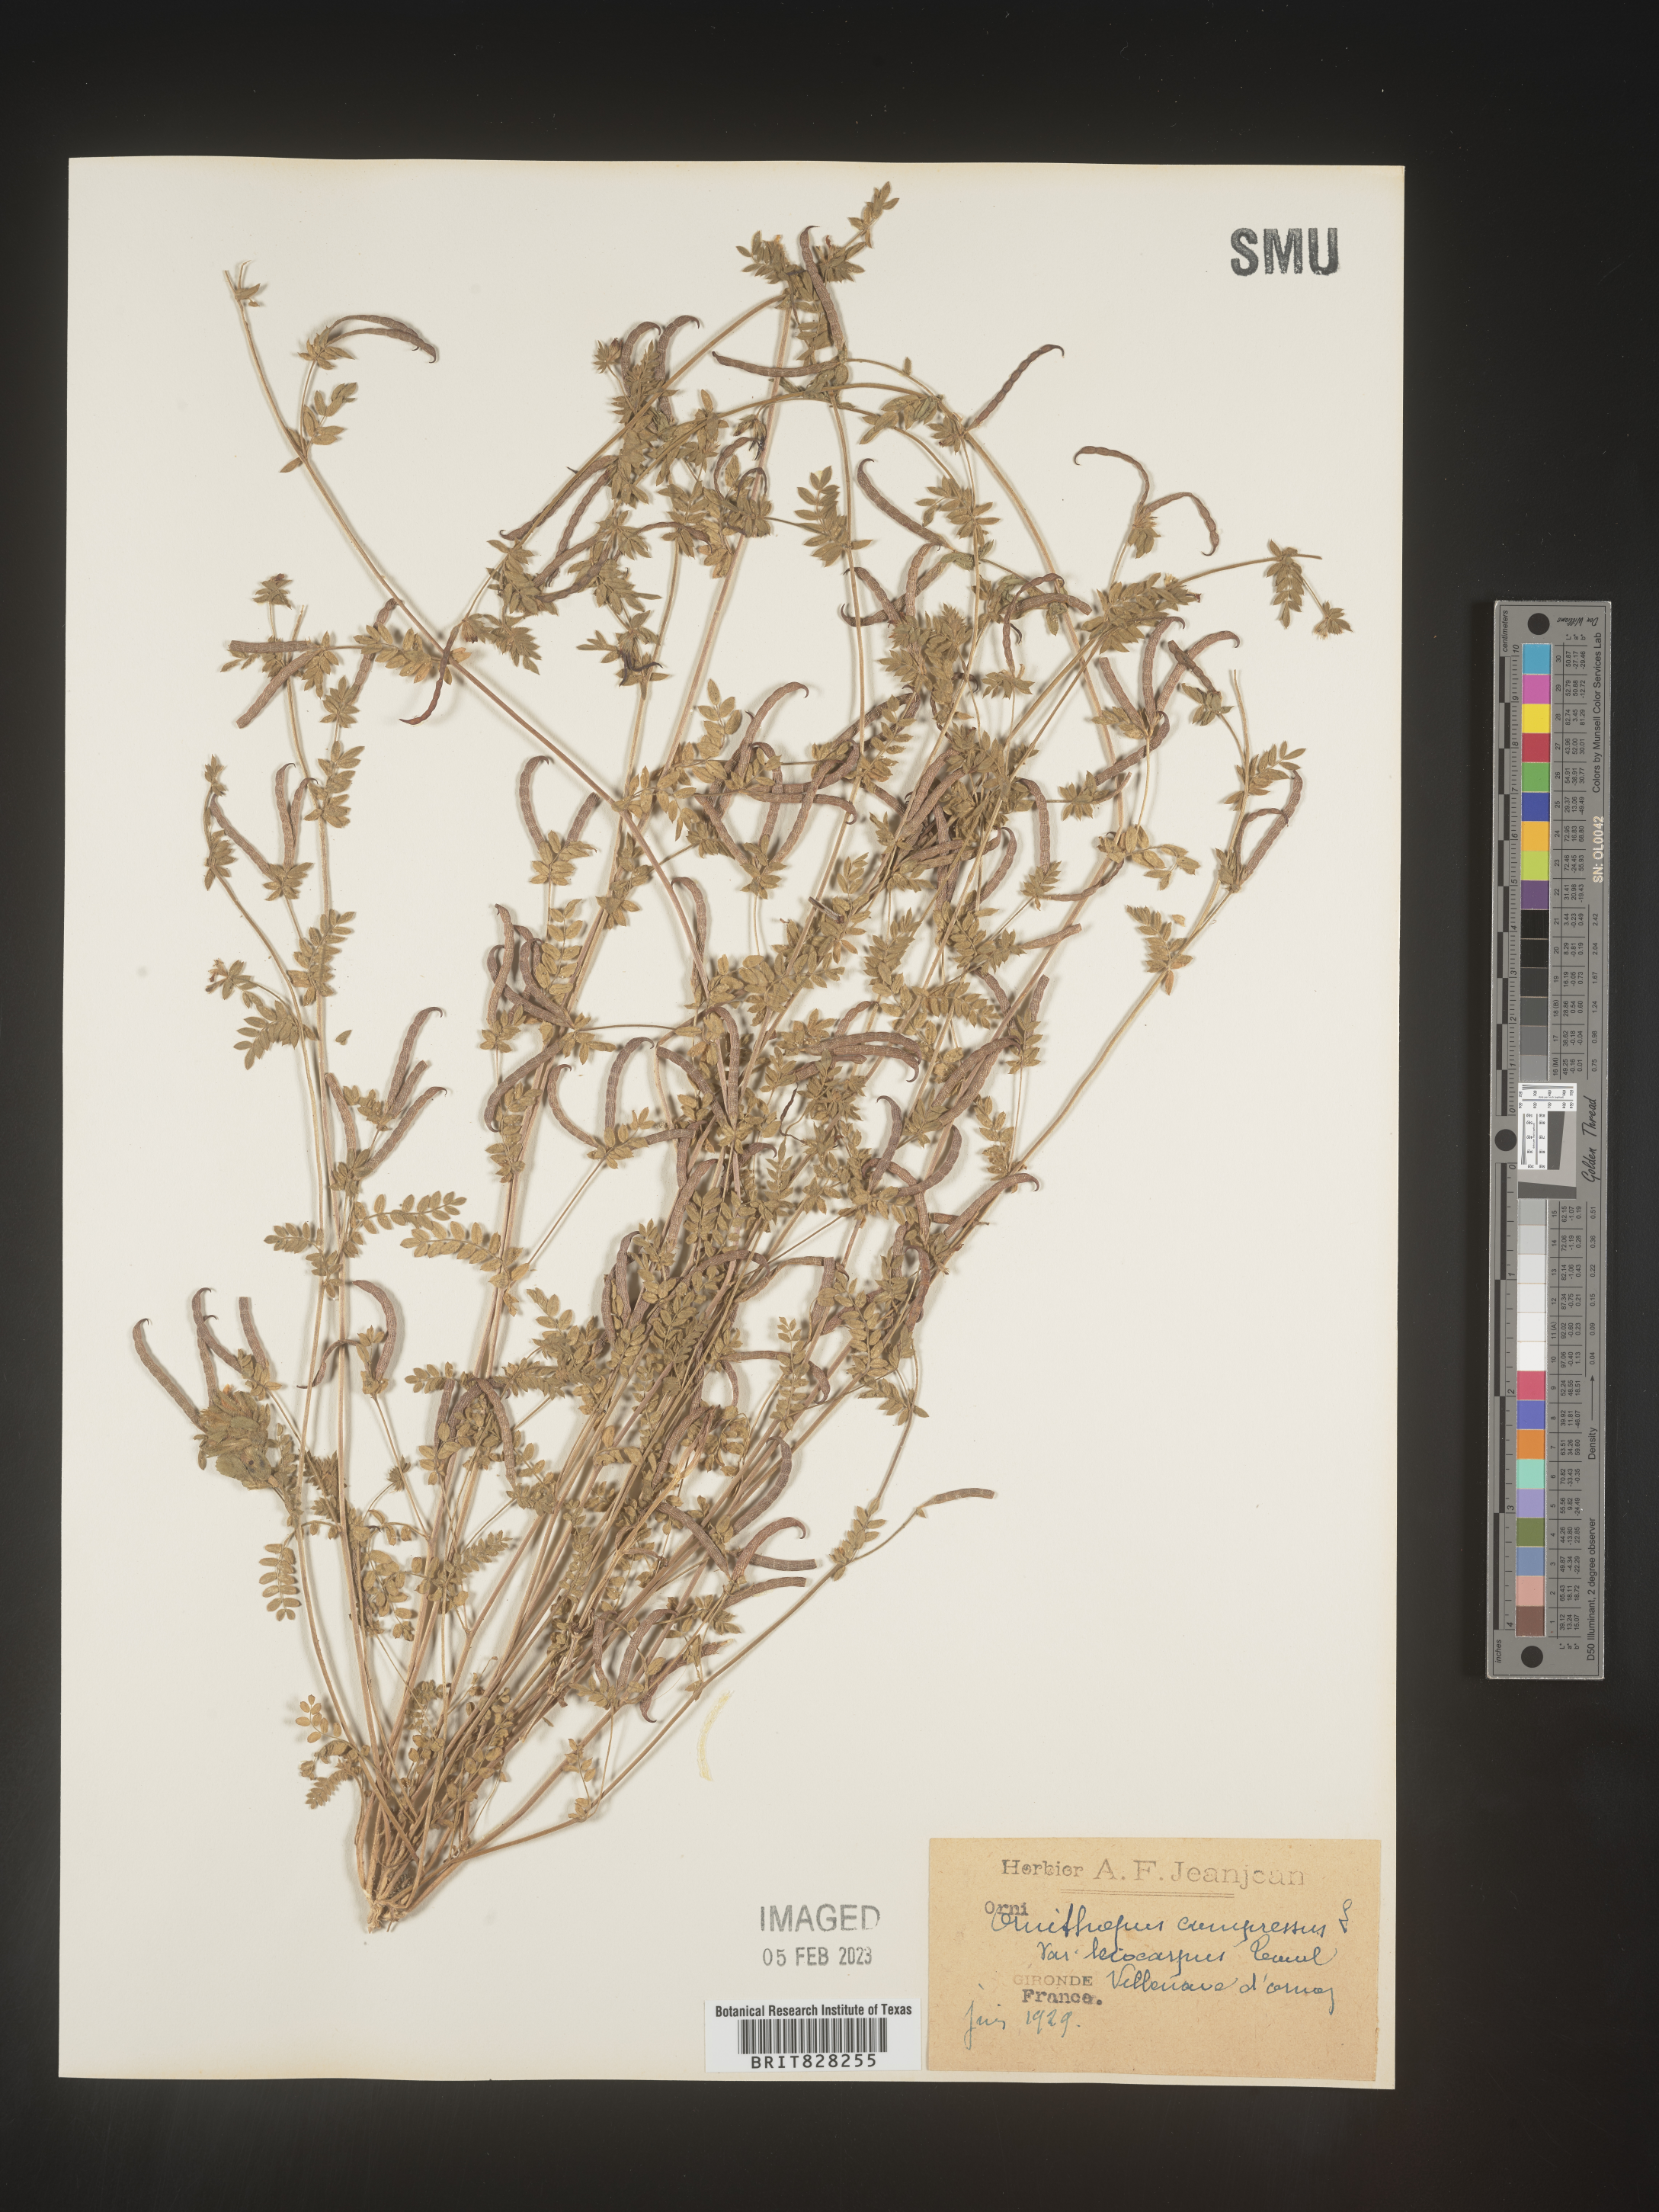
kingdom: Plantae
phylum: Tracheophyta
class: Magnoliopsida
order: Fabales
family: Fabaceae
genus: Ornithopus
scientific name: Ornithopus
